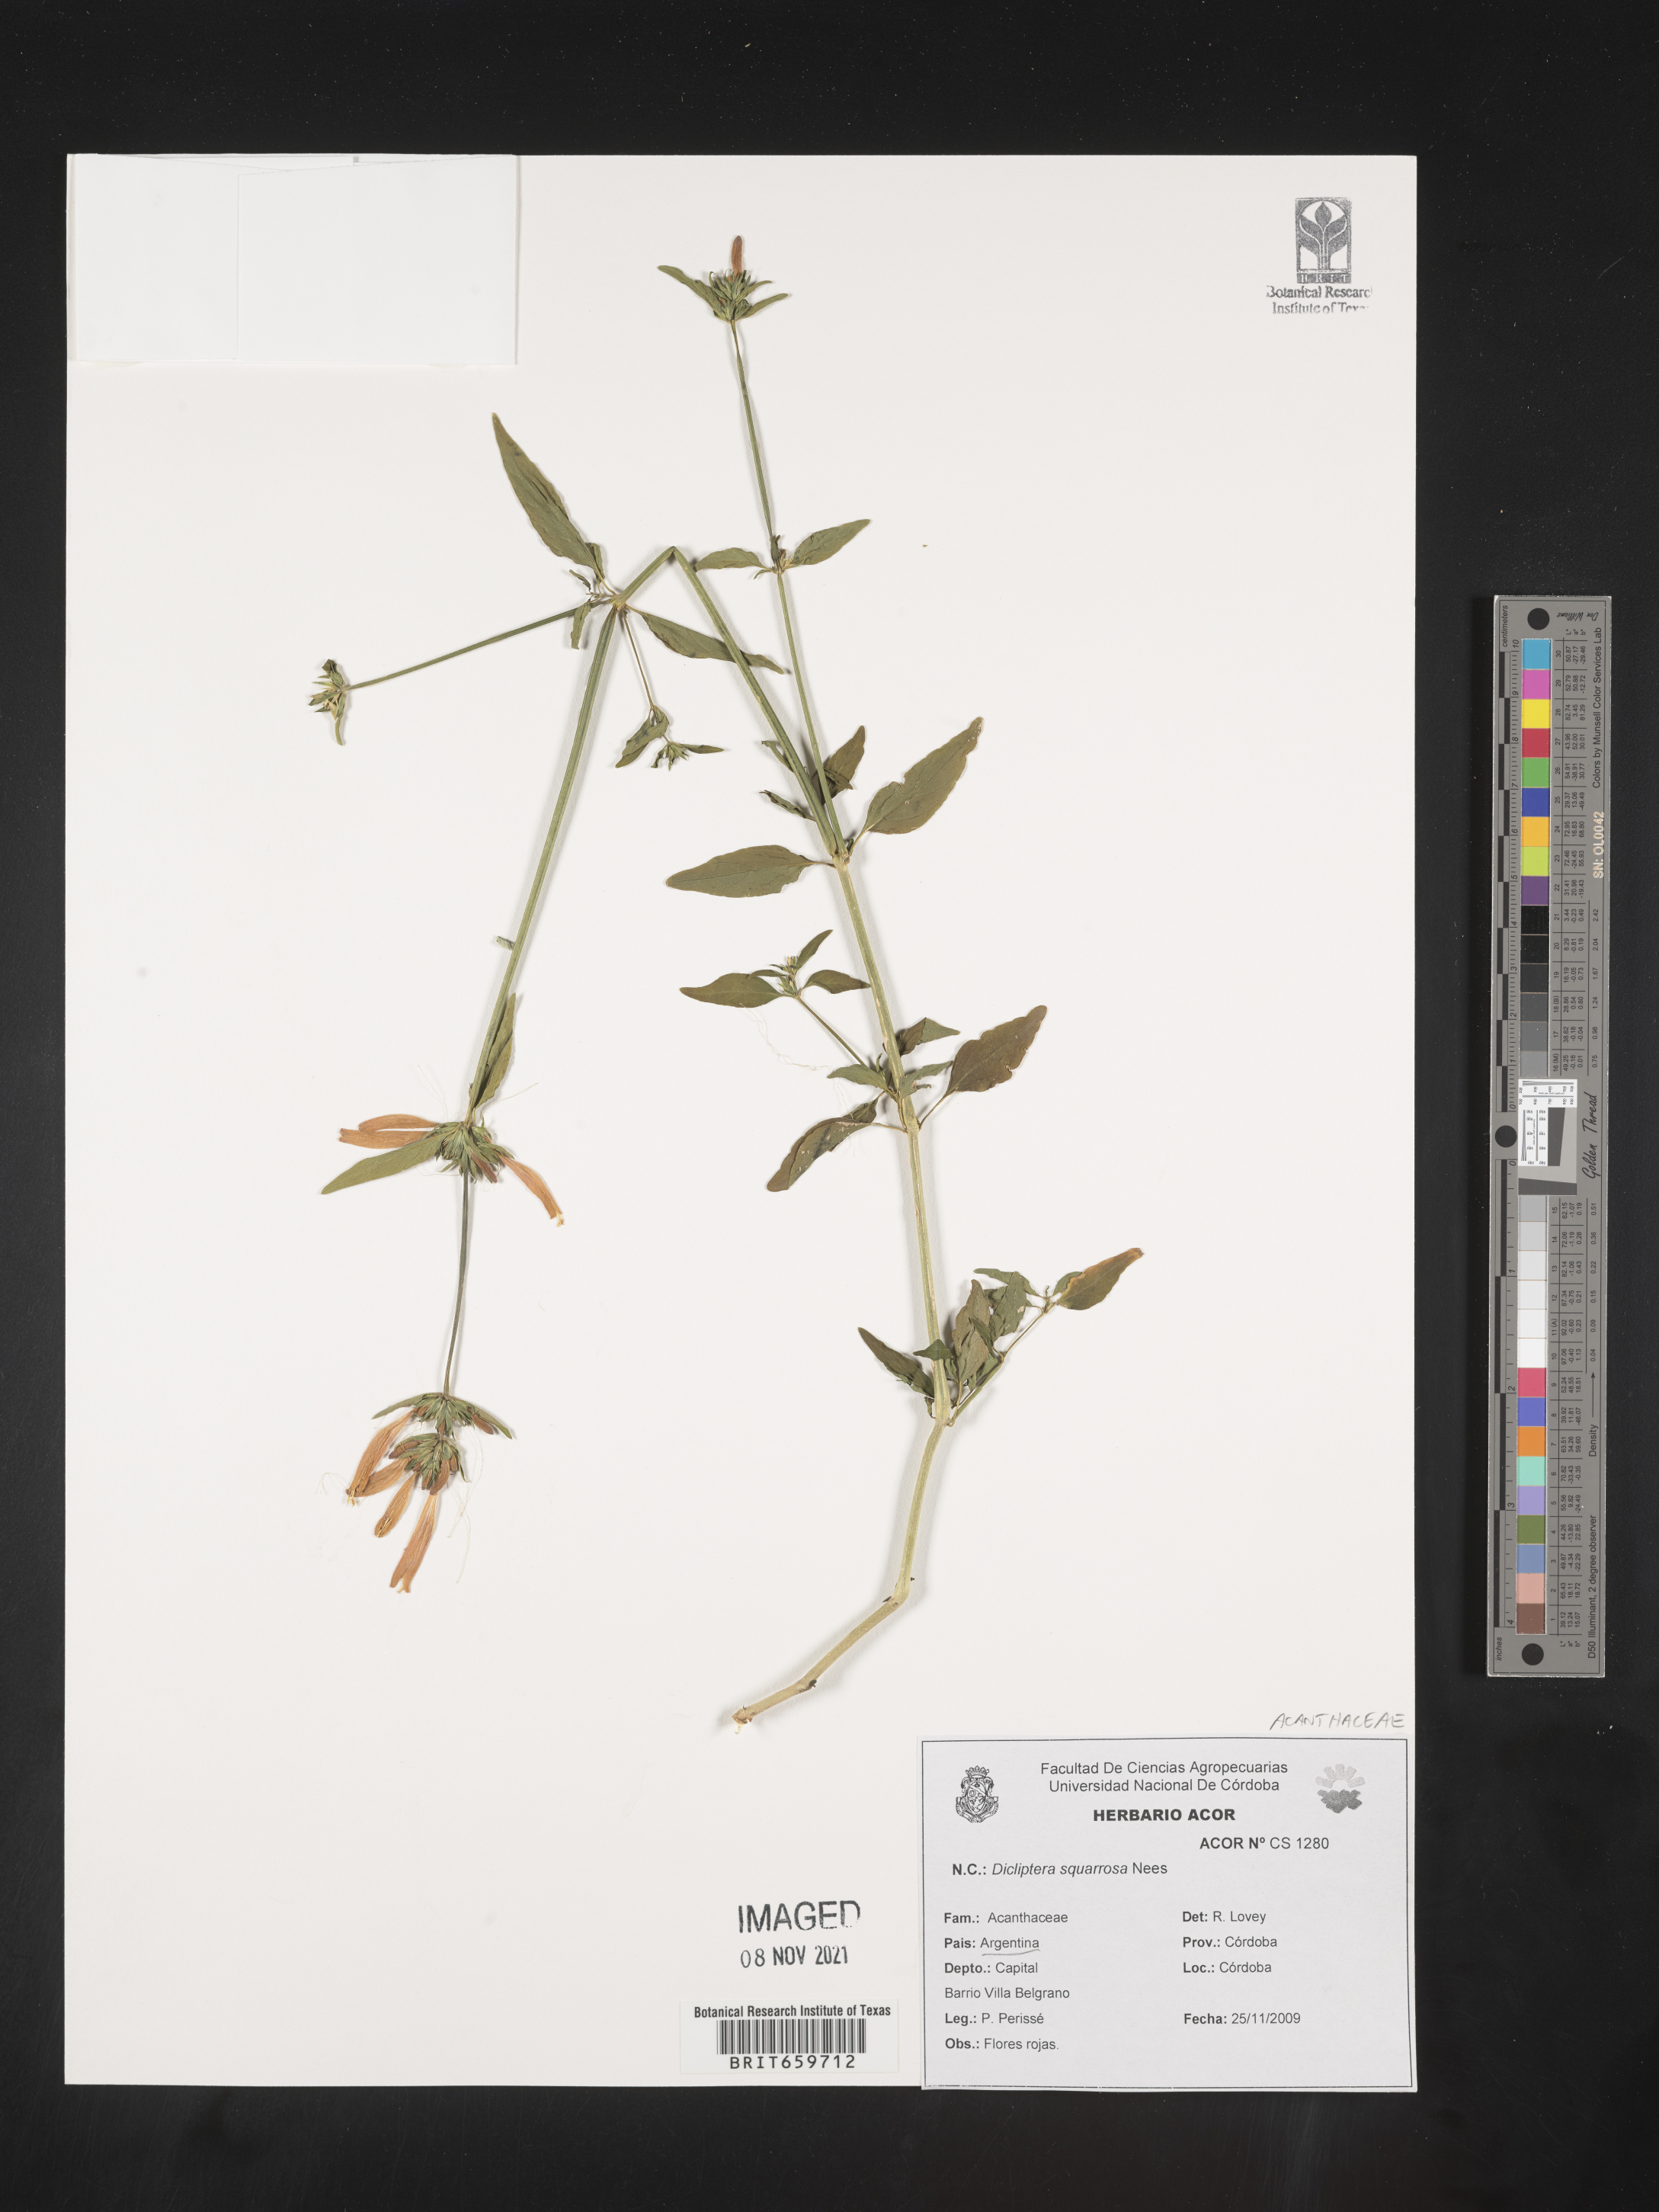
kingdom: Plantae
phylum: Tracheophyta
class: Magnoliopsida
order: Lamiales
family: Acanthaceae
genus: Dicliptera
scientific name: Dicliptera
